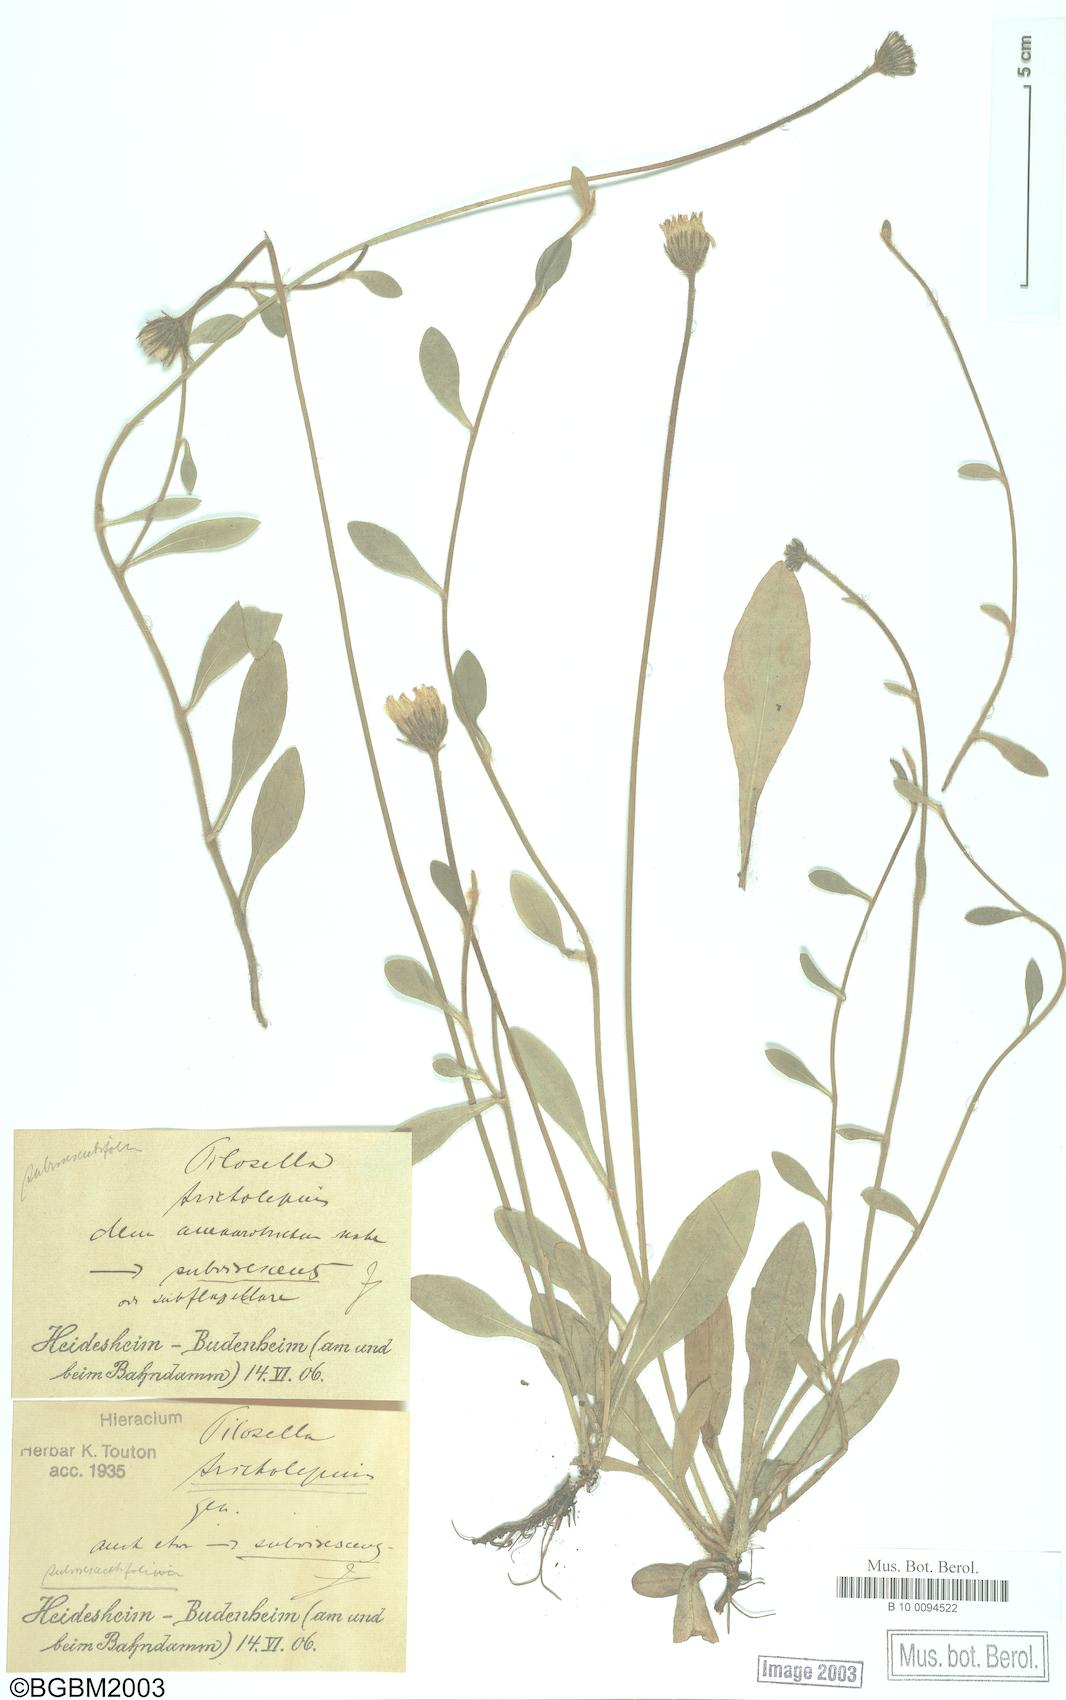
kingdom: Plantae
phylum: Tracheophyta
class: Magnoliopsida
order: Asterales
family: Asteraceae
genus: Pilosella
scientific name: Pilosella officinarum
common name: Mouse-ear hawkweed
